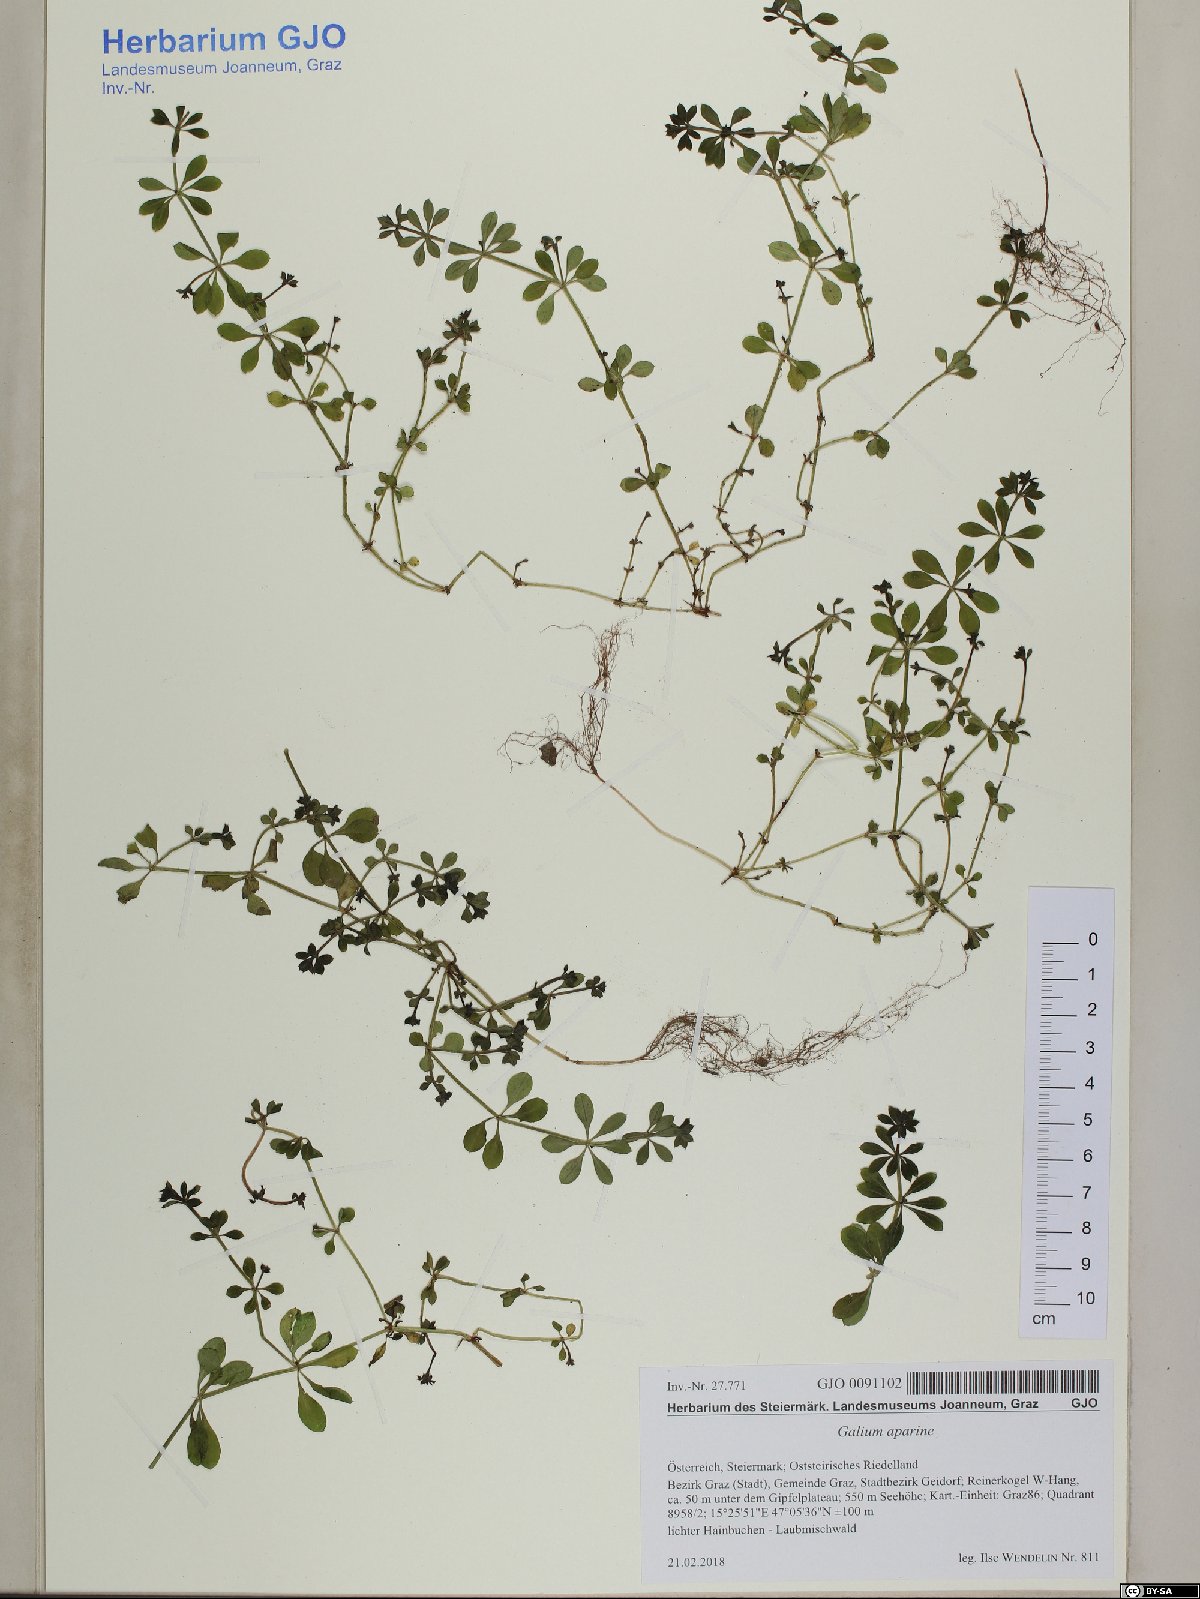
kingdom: Plantae
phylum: Tracheophyta
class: Magnoliopsida
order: Gentianales
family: Rubiaceae
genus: Galium
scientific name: Galium aparine
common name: Cleavers
